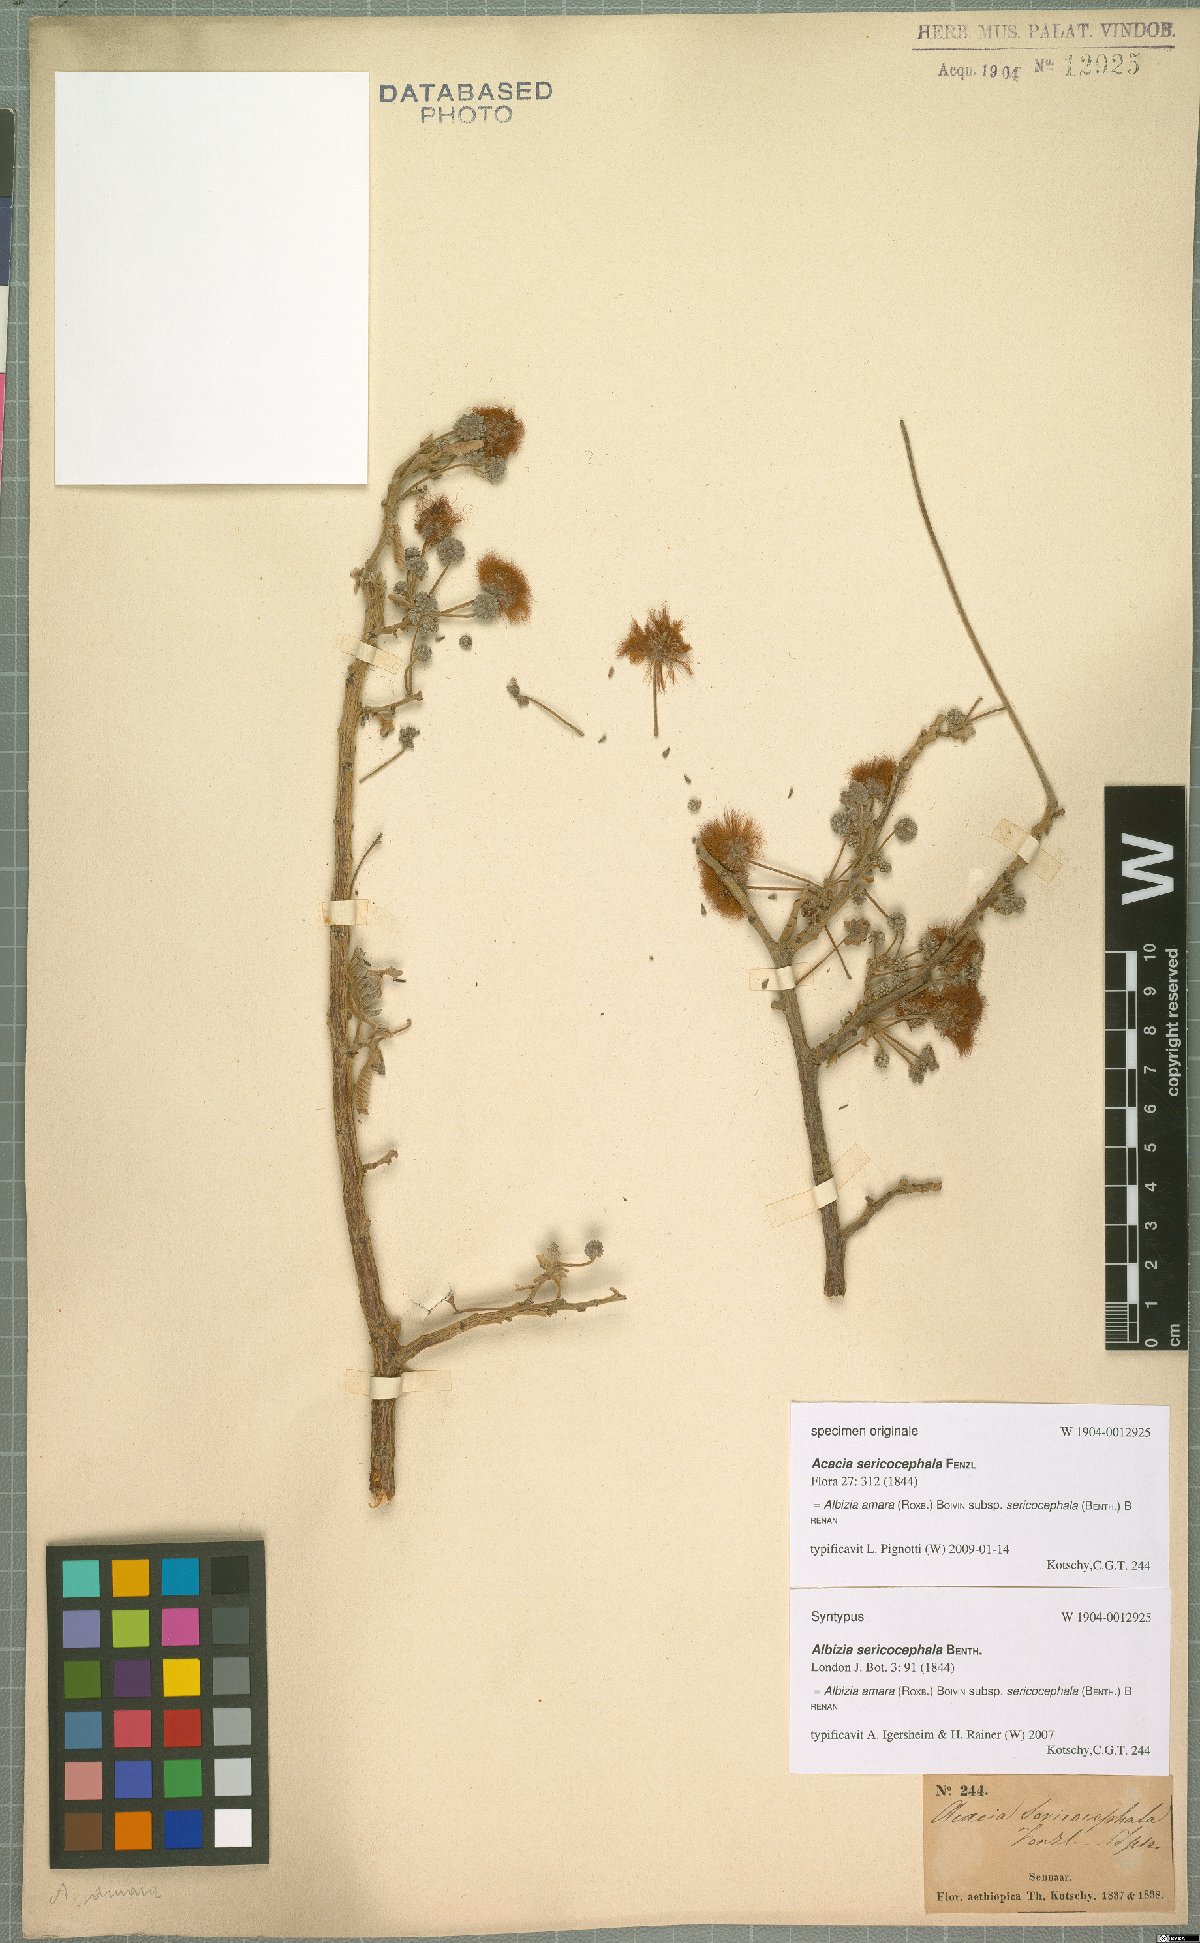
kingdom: Plantae
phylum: Tracheophyta
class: Magnoliopsida
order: Fabales
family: Fabaceae
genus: Albizia
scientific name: Albizia amara
